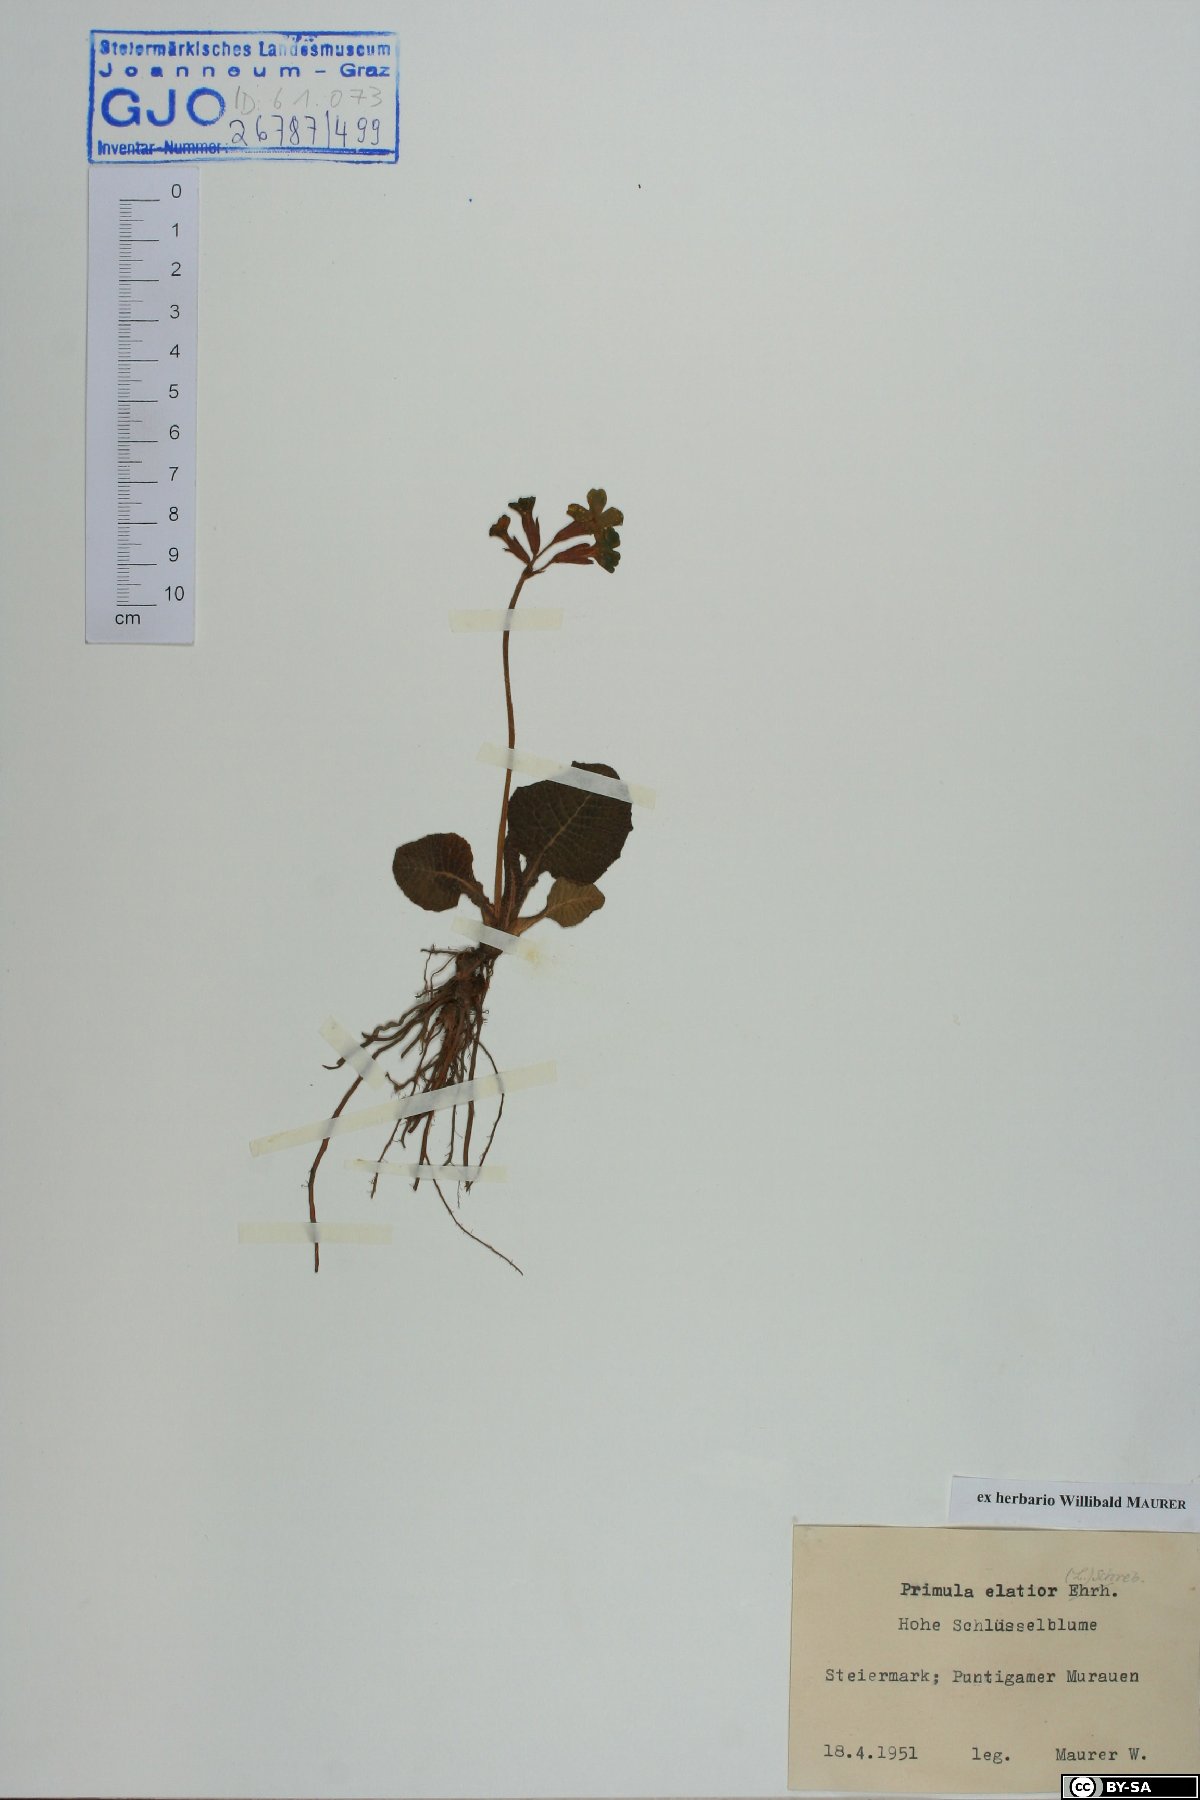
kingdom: Plantae
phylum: Tracheophyta
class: Magnoliopsida
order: Ericales
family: Primulaceae
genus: Primula
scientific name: Primula elatior
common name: Oxlip
